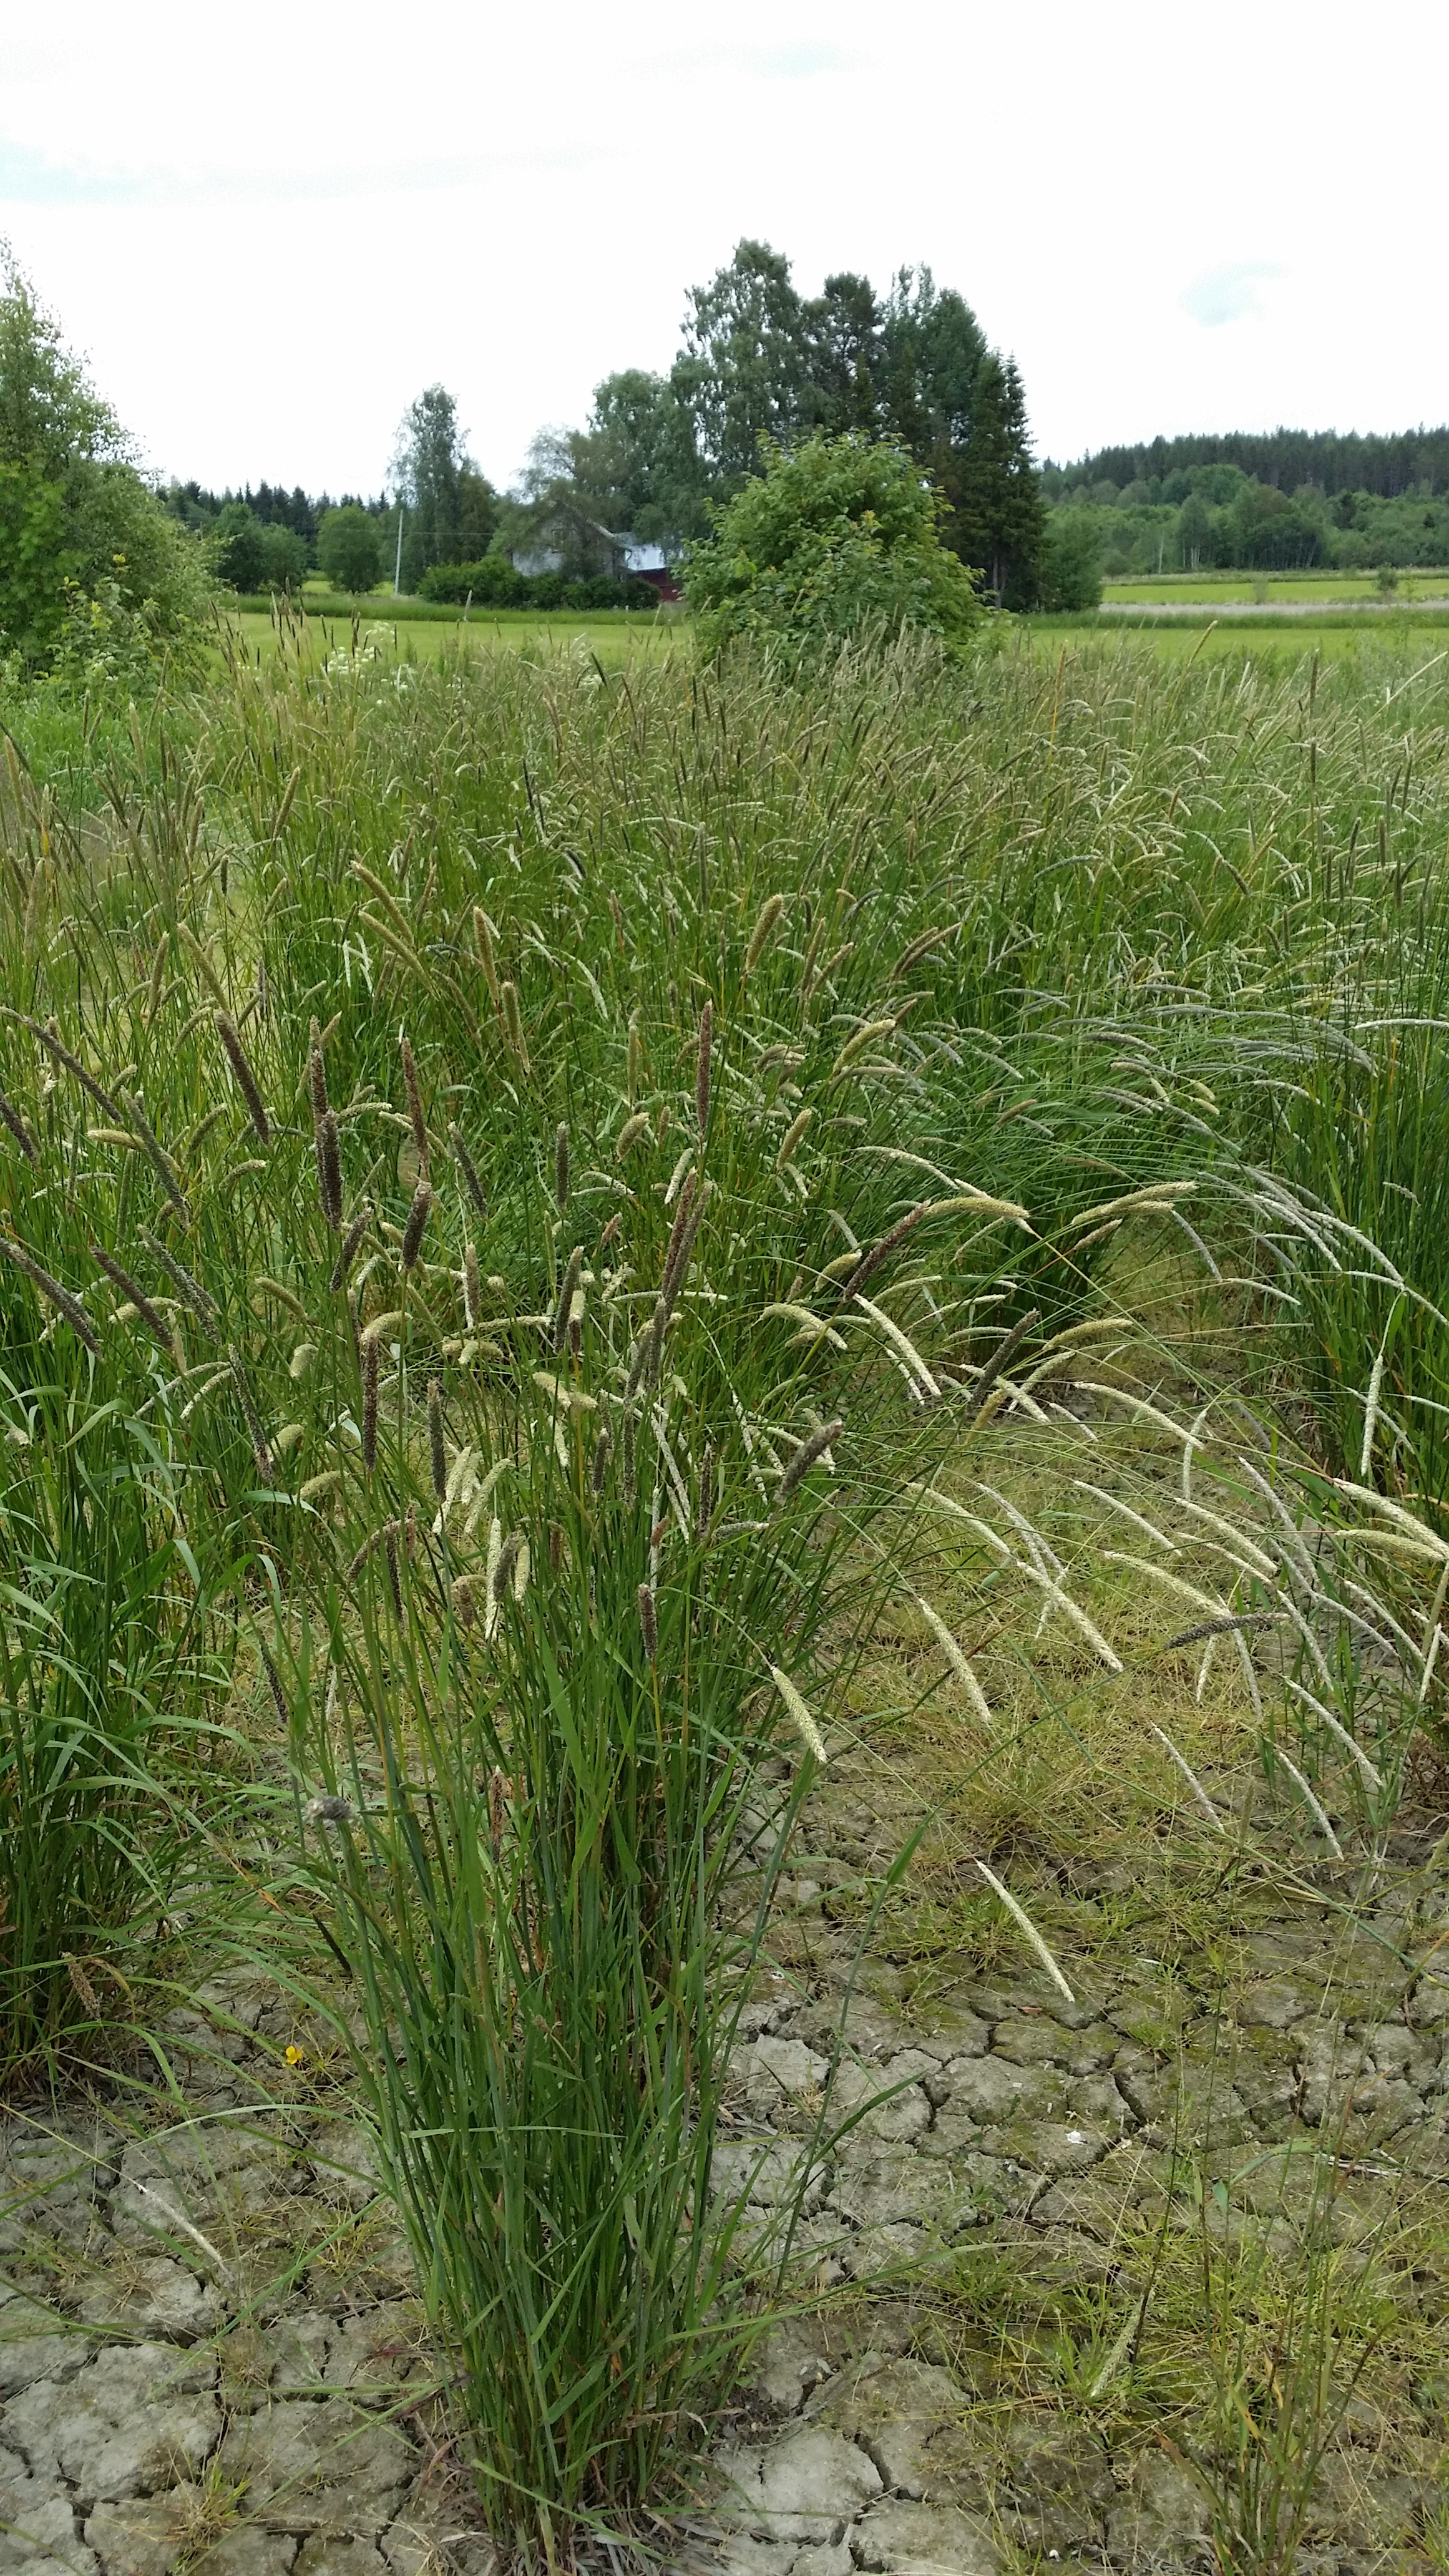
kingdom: Plantae
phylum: Tracheophyta
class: Liliopsida
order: Poales
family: Poaceae
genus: Alopecurus
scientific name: Alopecurus pratensis
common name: Meadow foxtail
